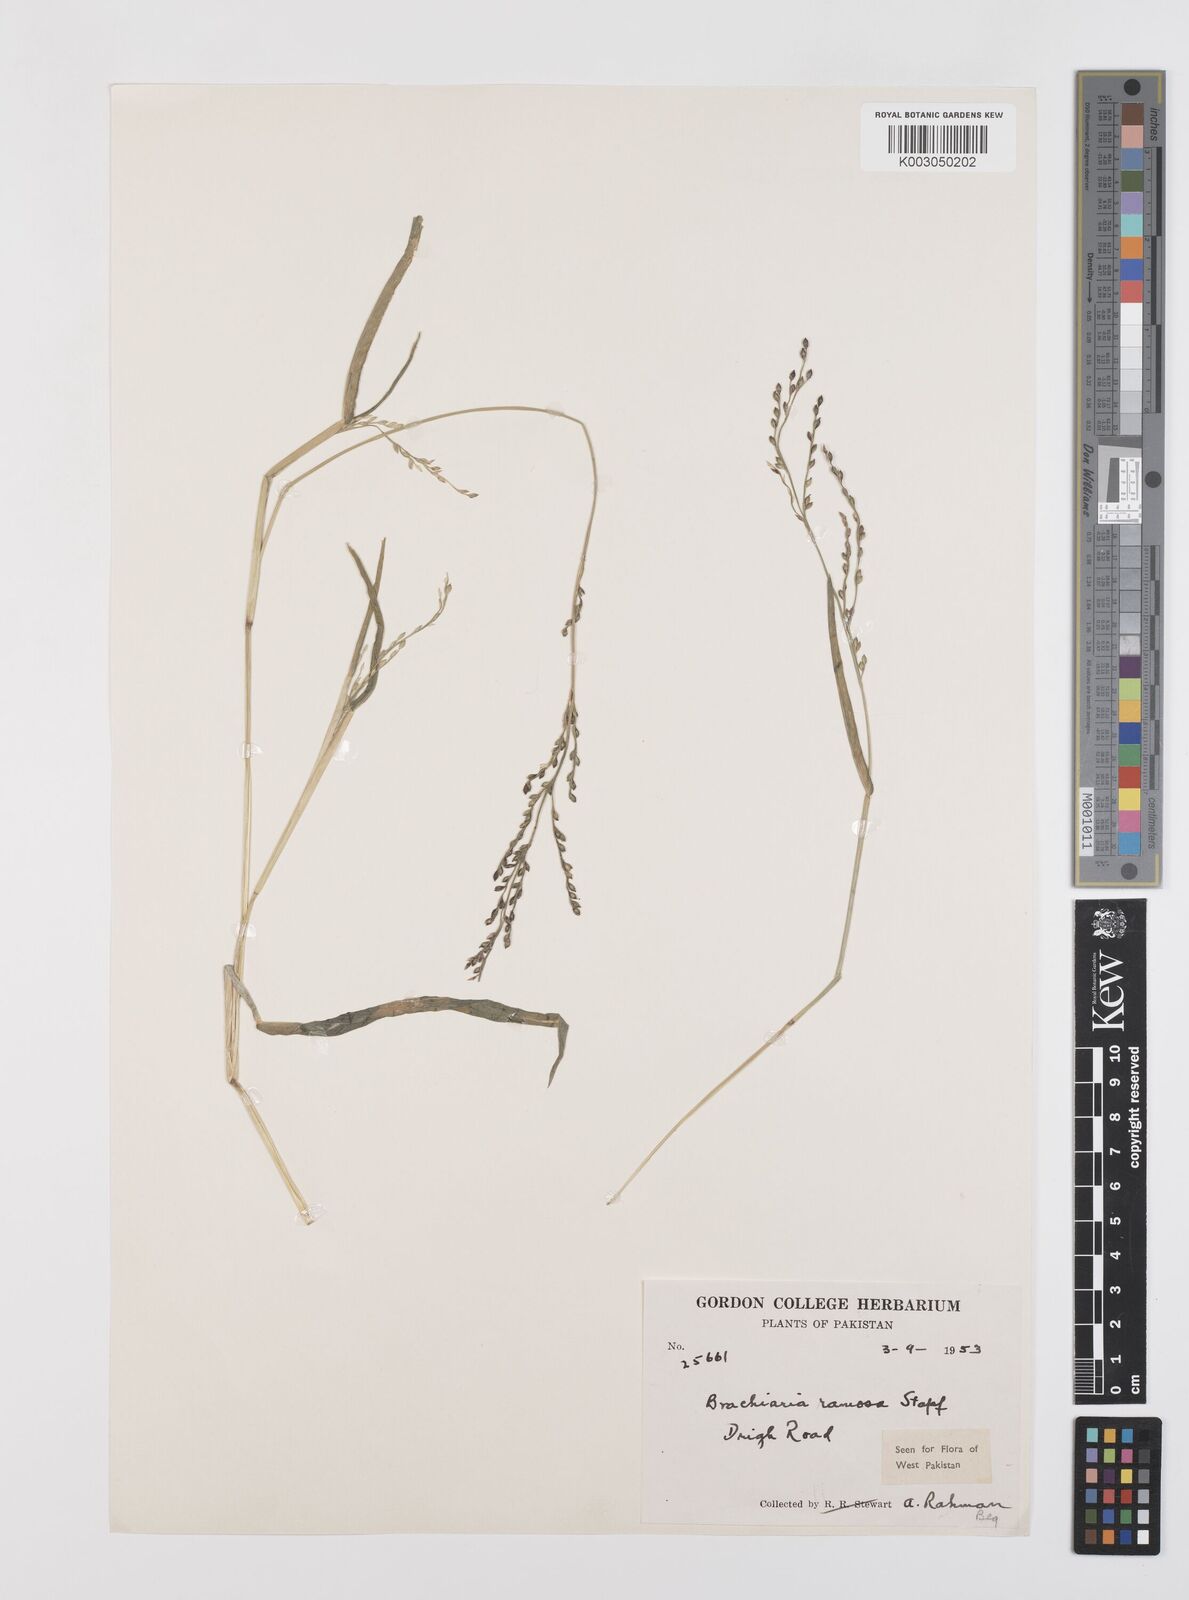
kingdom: Plantae
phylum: Tracheophyta
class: Liliopsida
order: Poales
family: Poaceae
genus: Urochloa
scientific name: Urochloa ramosa
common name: Browntop millet
